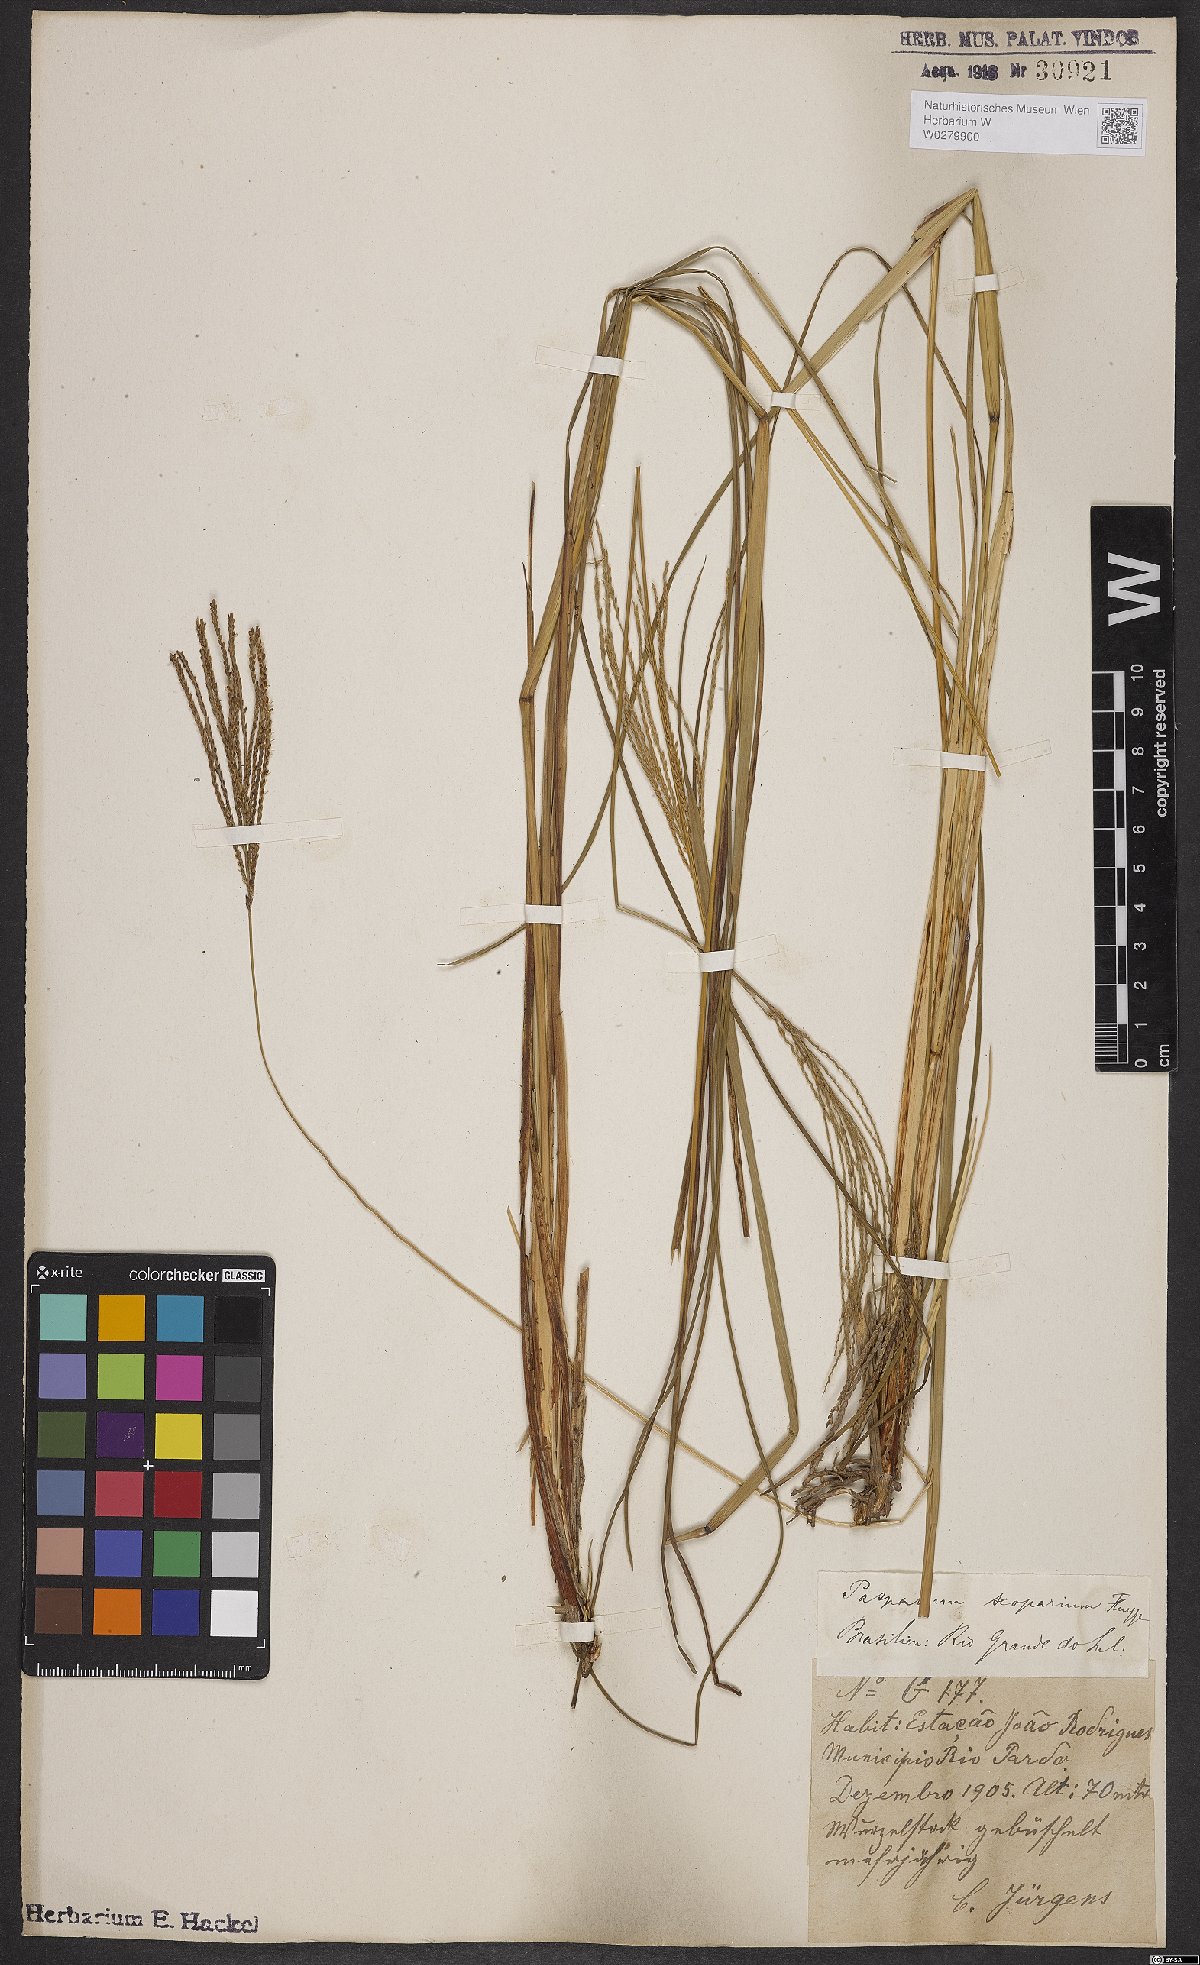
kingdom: Plantae
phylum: Tracheophyta
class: Liliopsida
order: Poales
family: Poaceae
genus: Axonopus
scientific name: Axonopus scoparius
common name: Imperial grass
